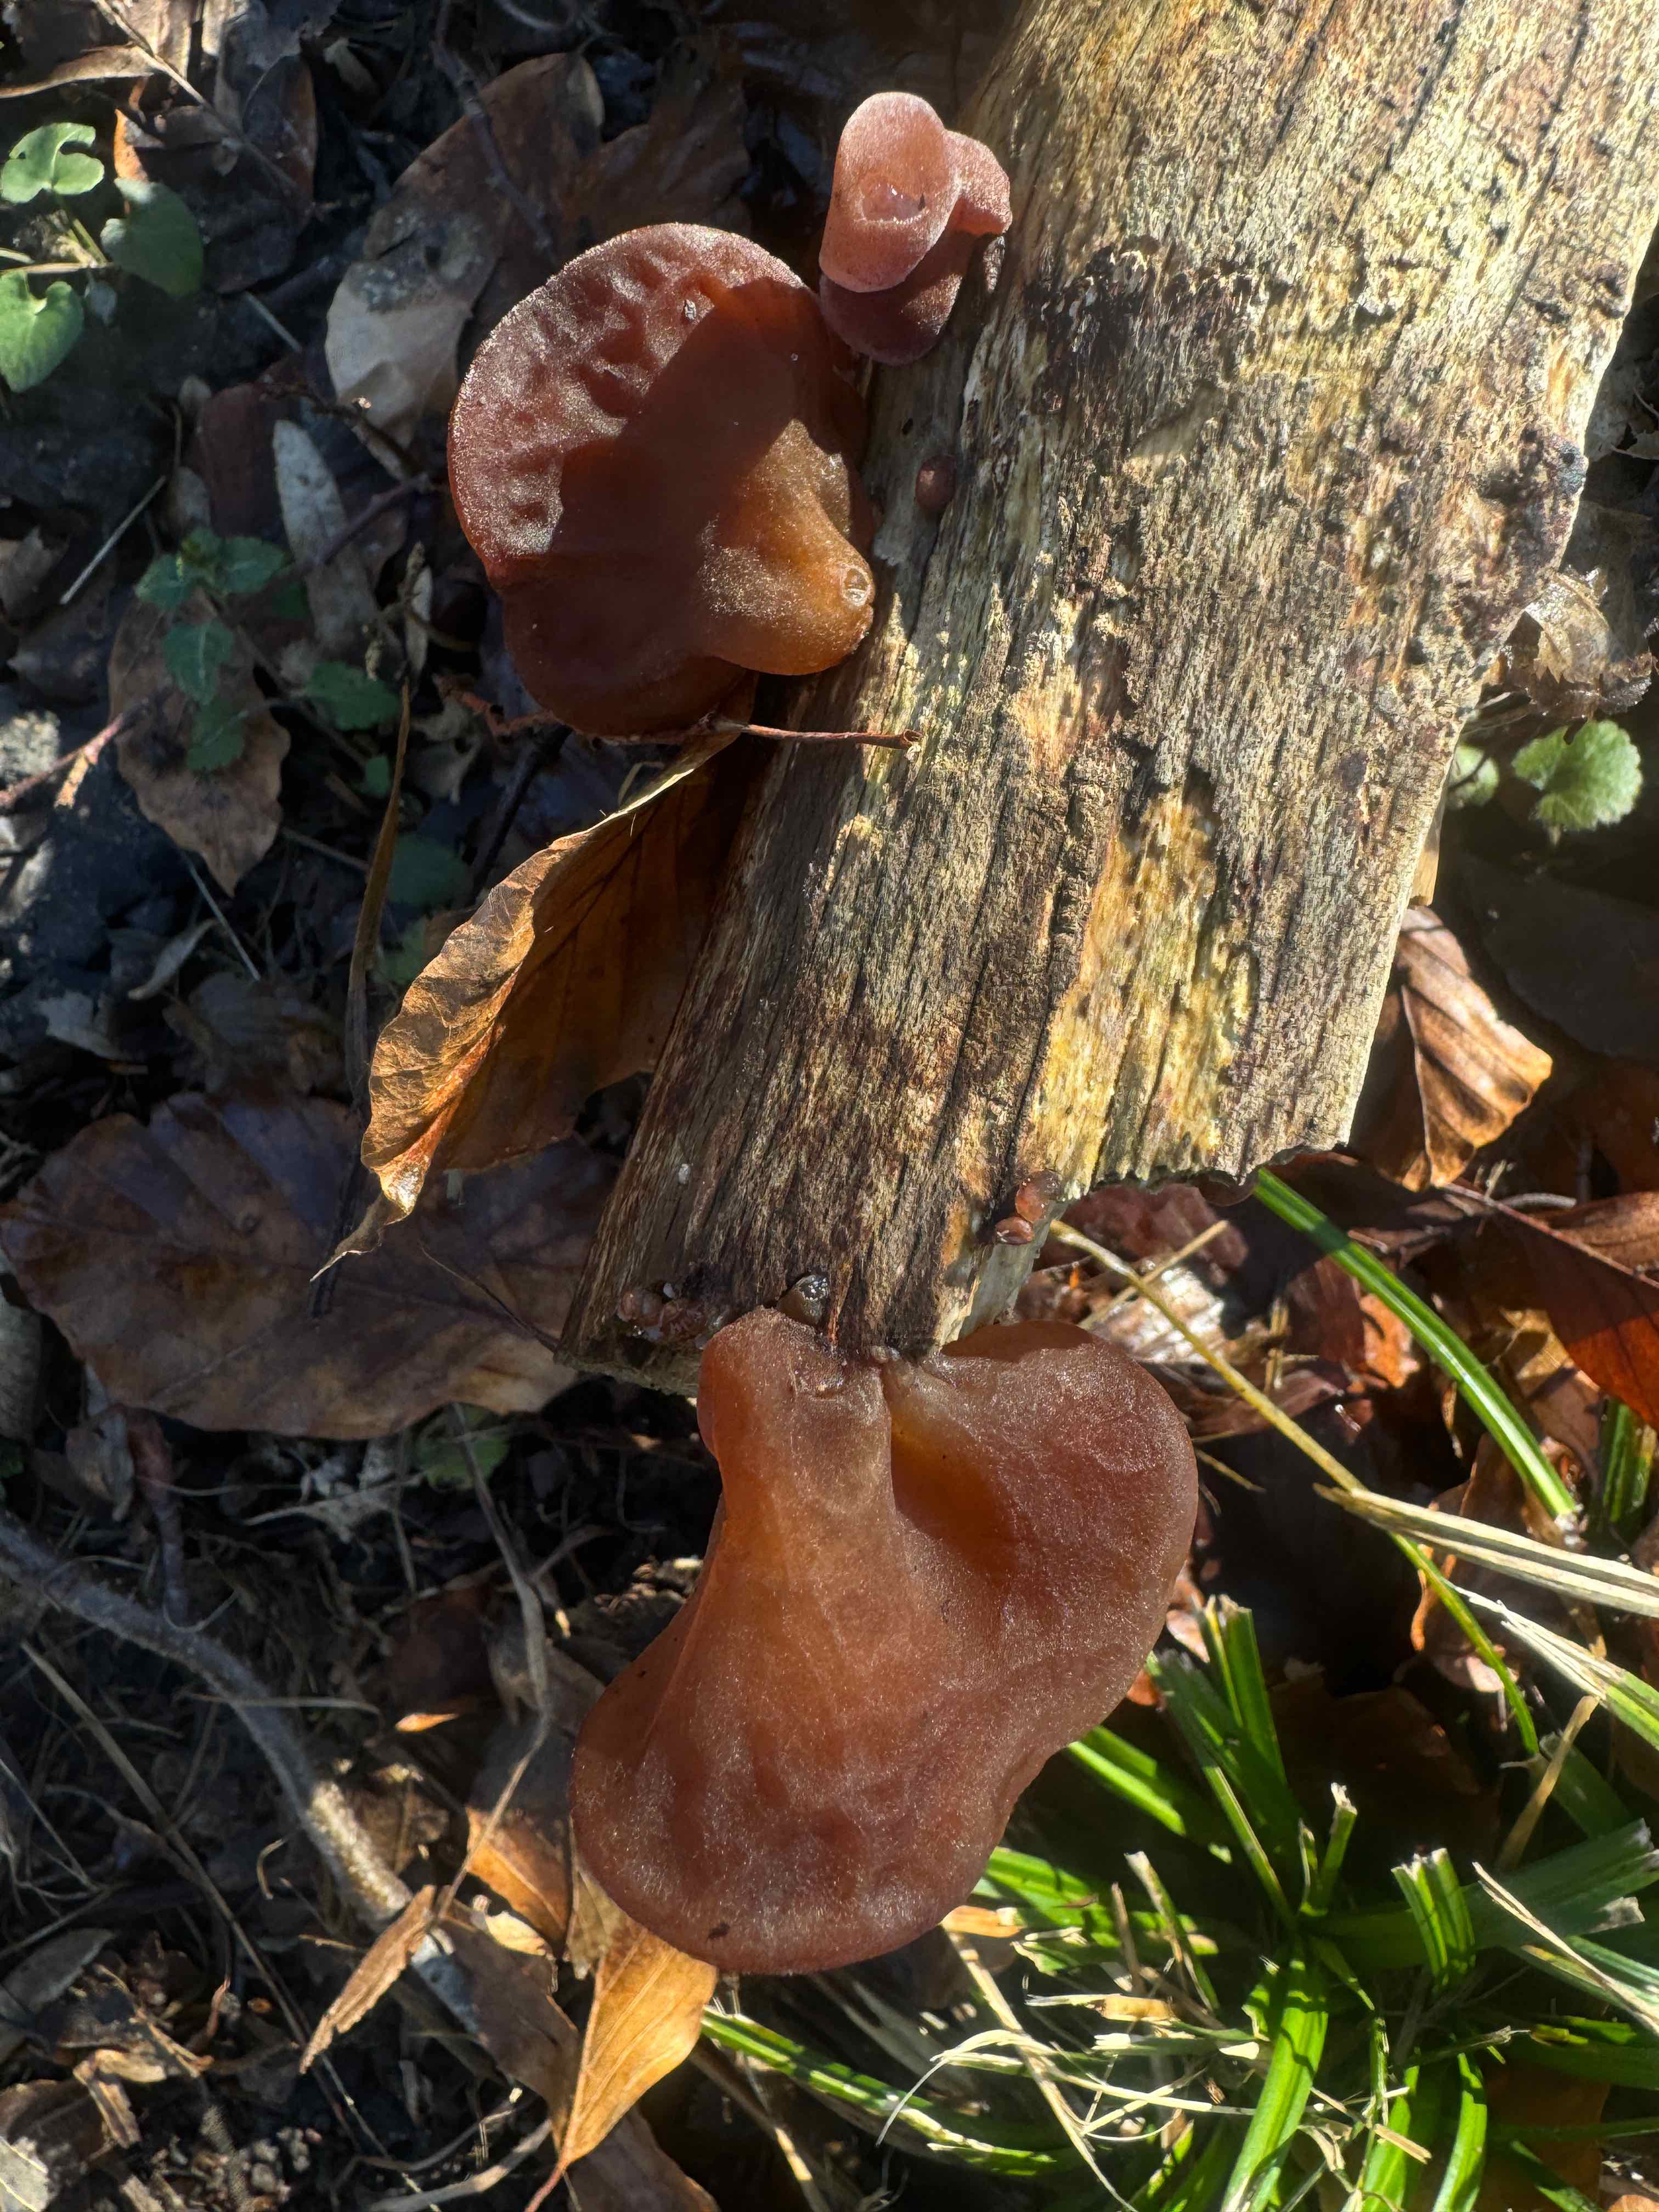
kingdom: Fungi
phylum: Basidiomycota
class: Agaricomycetes
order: Auriculariales
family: Auriculariaceae
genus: Auricularia
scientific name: Auricularia auricula-judae
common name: almindelig judasøre
